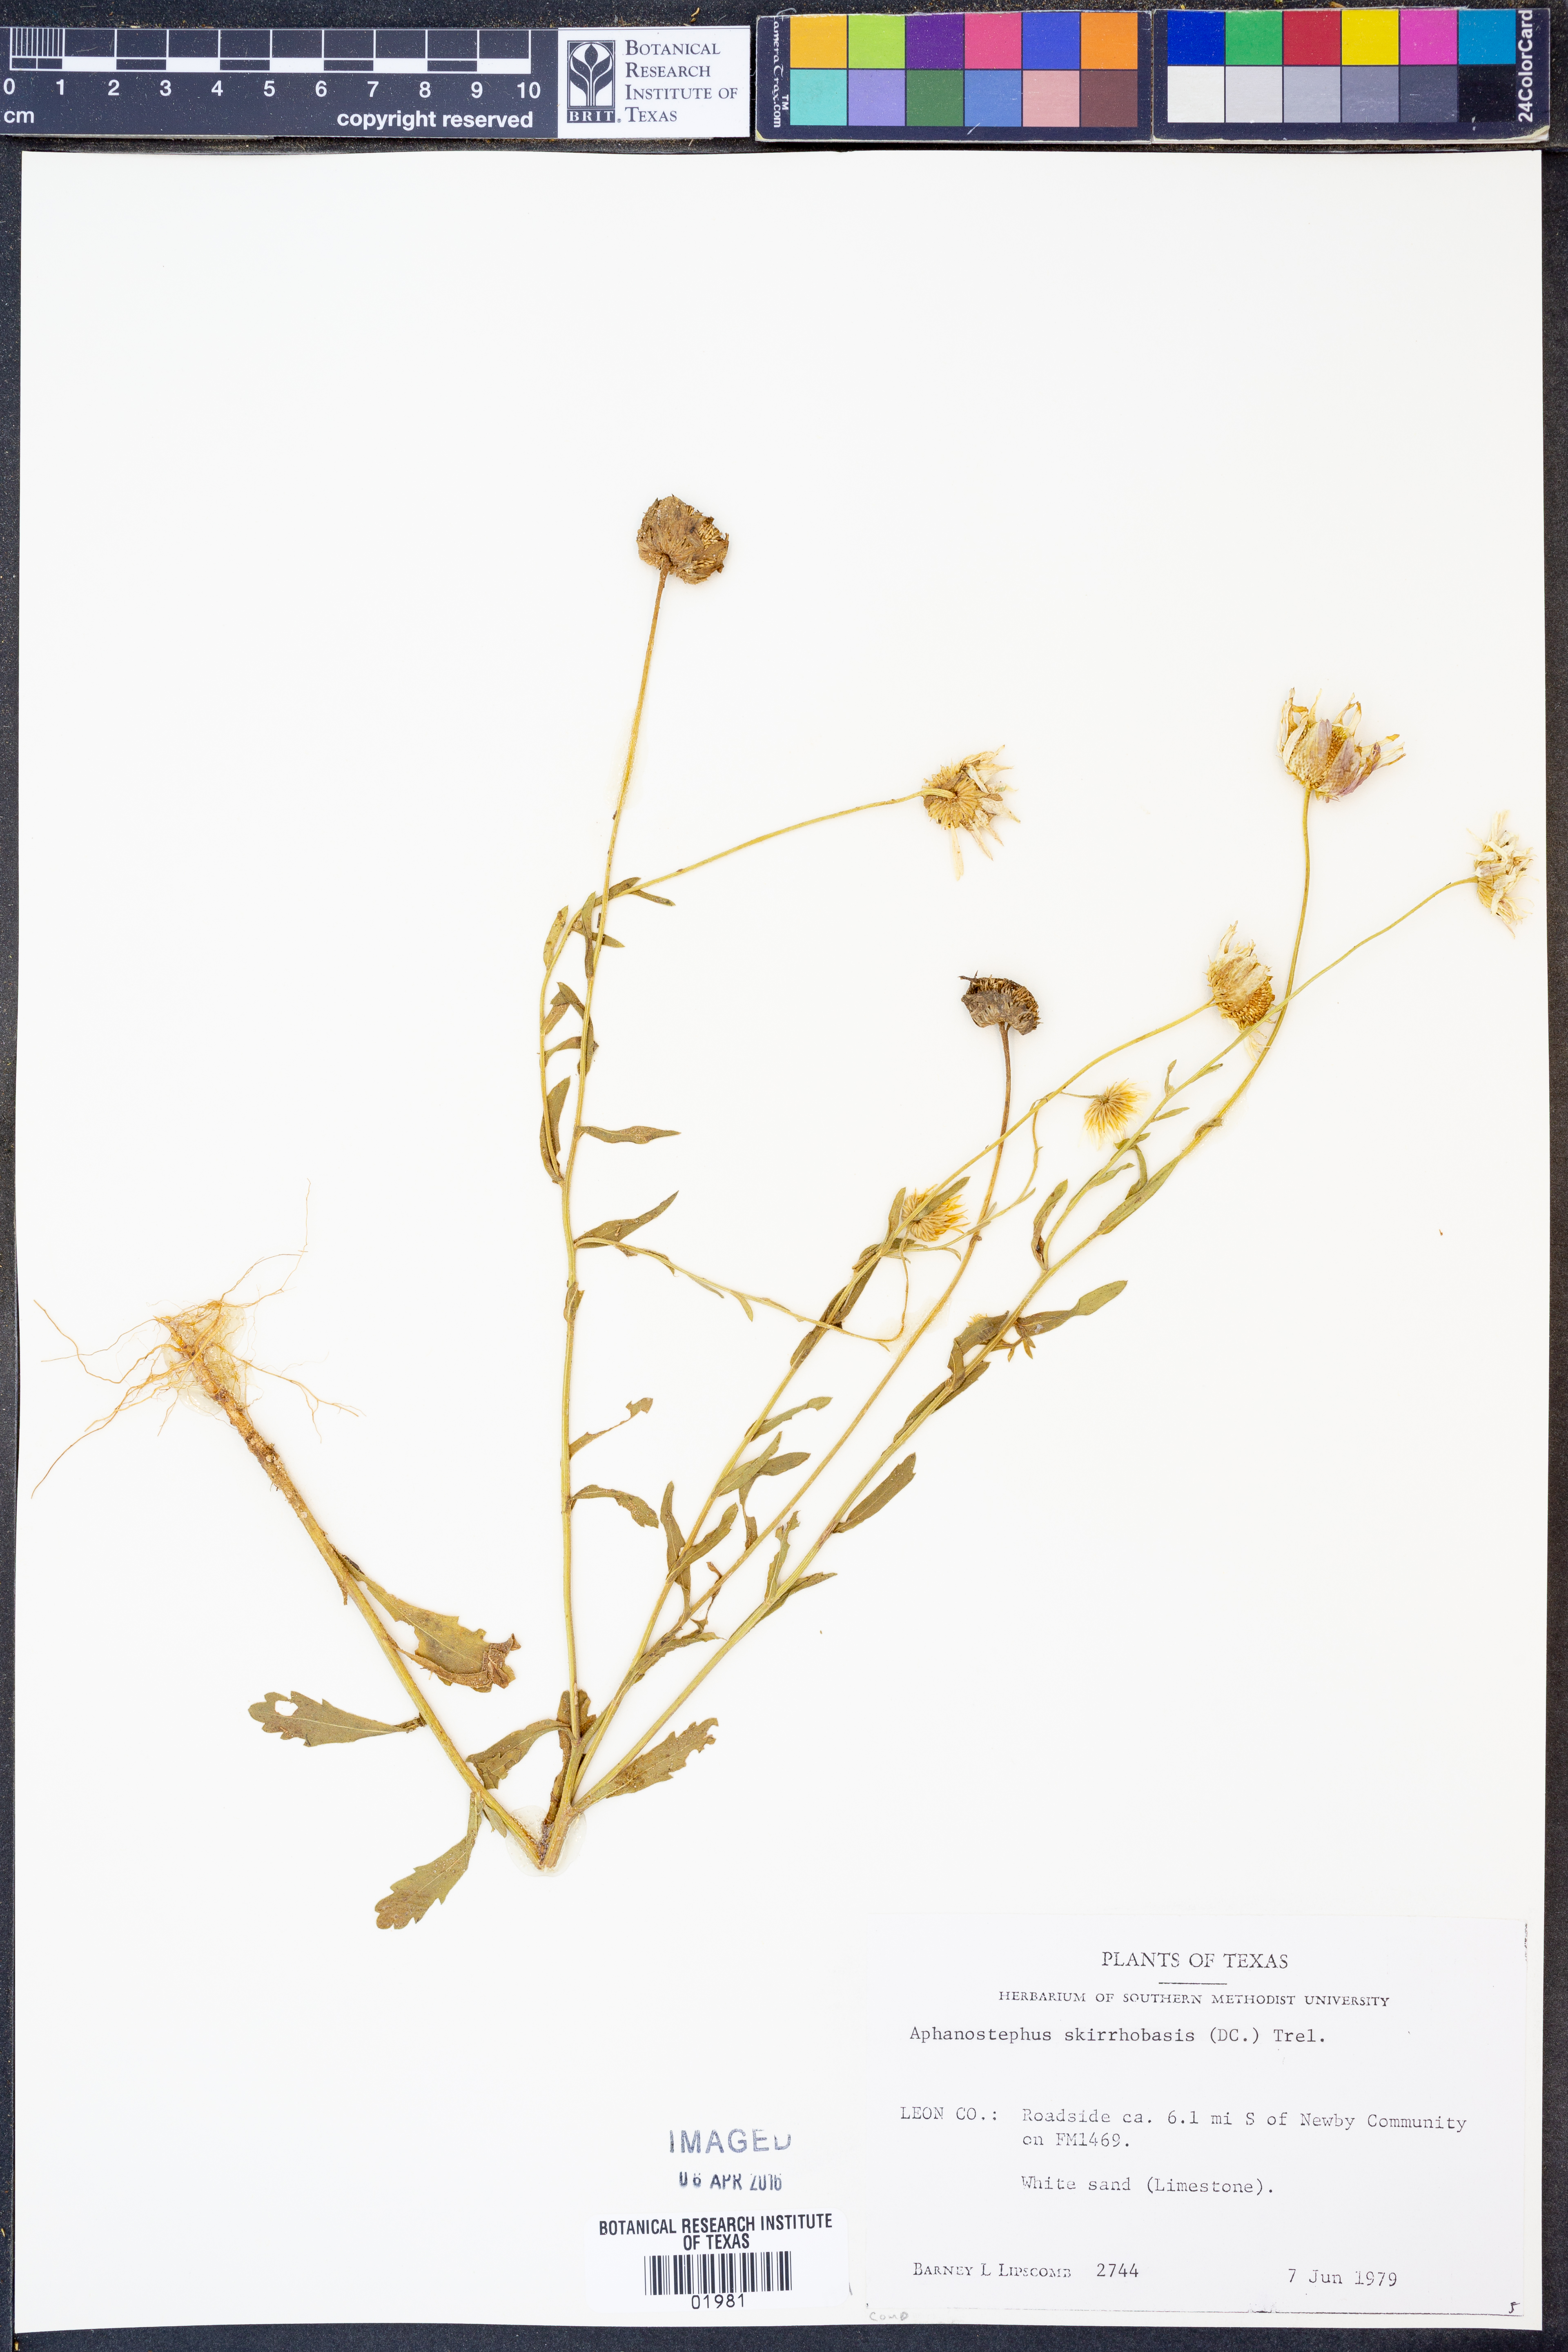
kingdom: Plantae
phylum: Tracheophyta
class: Magnoliopsida
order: Asterales
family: Asteraceae
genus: Aphanostephus
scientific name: Aphanostephus skirrhobasis
